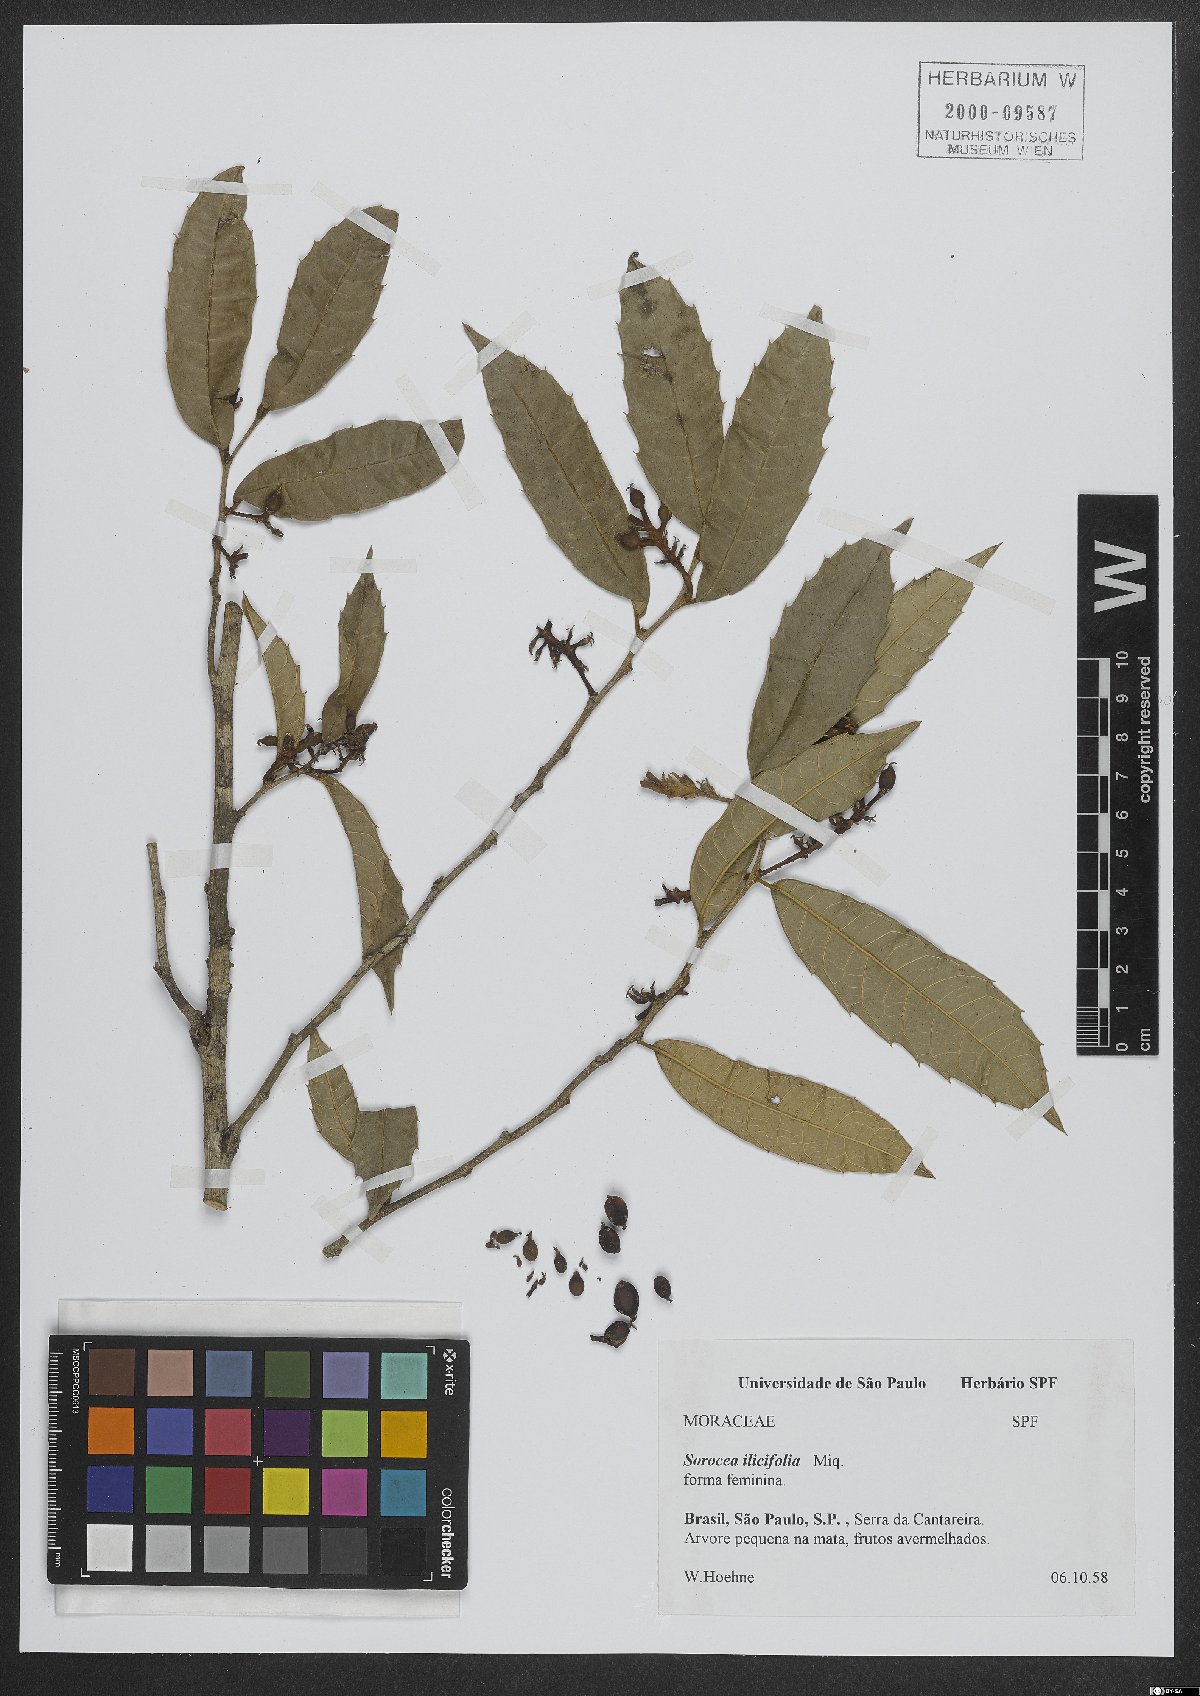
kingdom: Plantae
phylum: Tracheophyta
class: Magnoliopsida
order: Rosales
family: Moraceae
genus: Sorocea
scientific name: Sorocea
